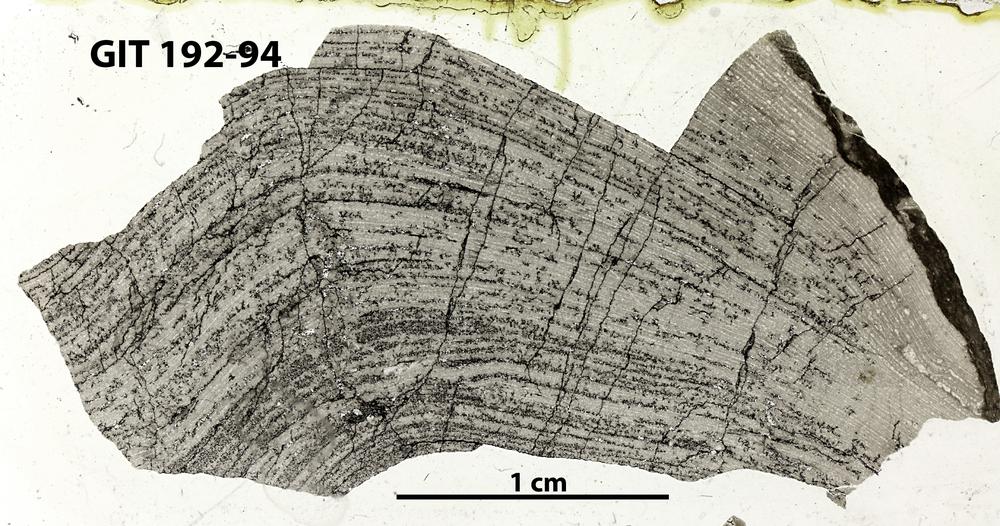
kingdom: Animalia
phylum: Porifera
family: Stromatoporidae
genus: Parallelostroma
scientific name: Parallelostroma
